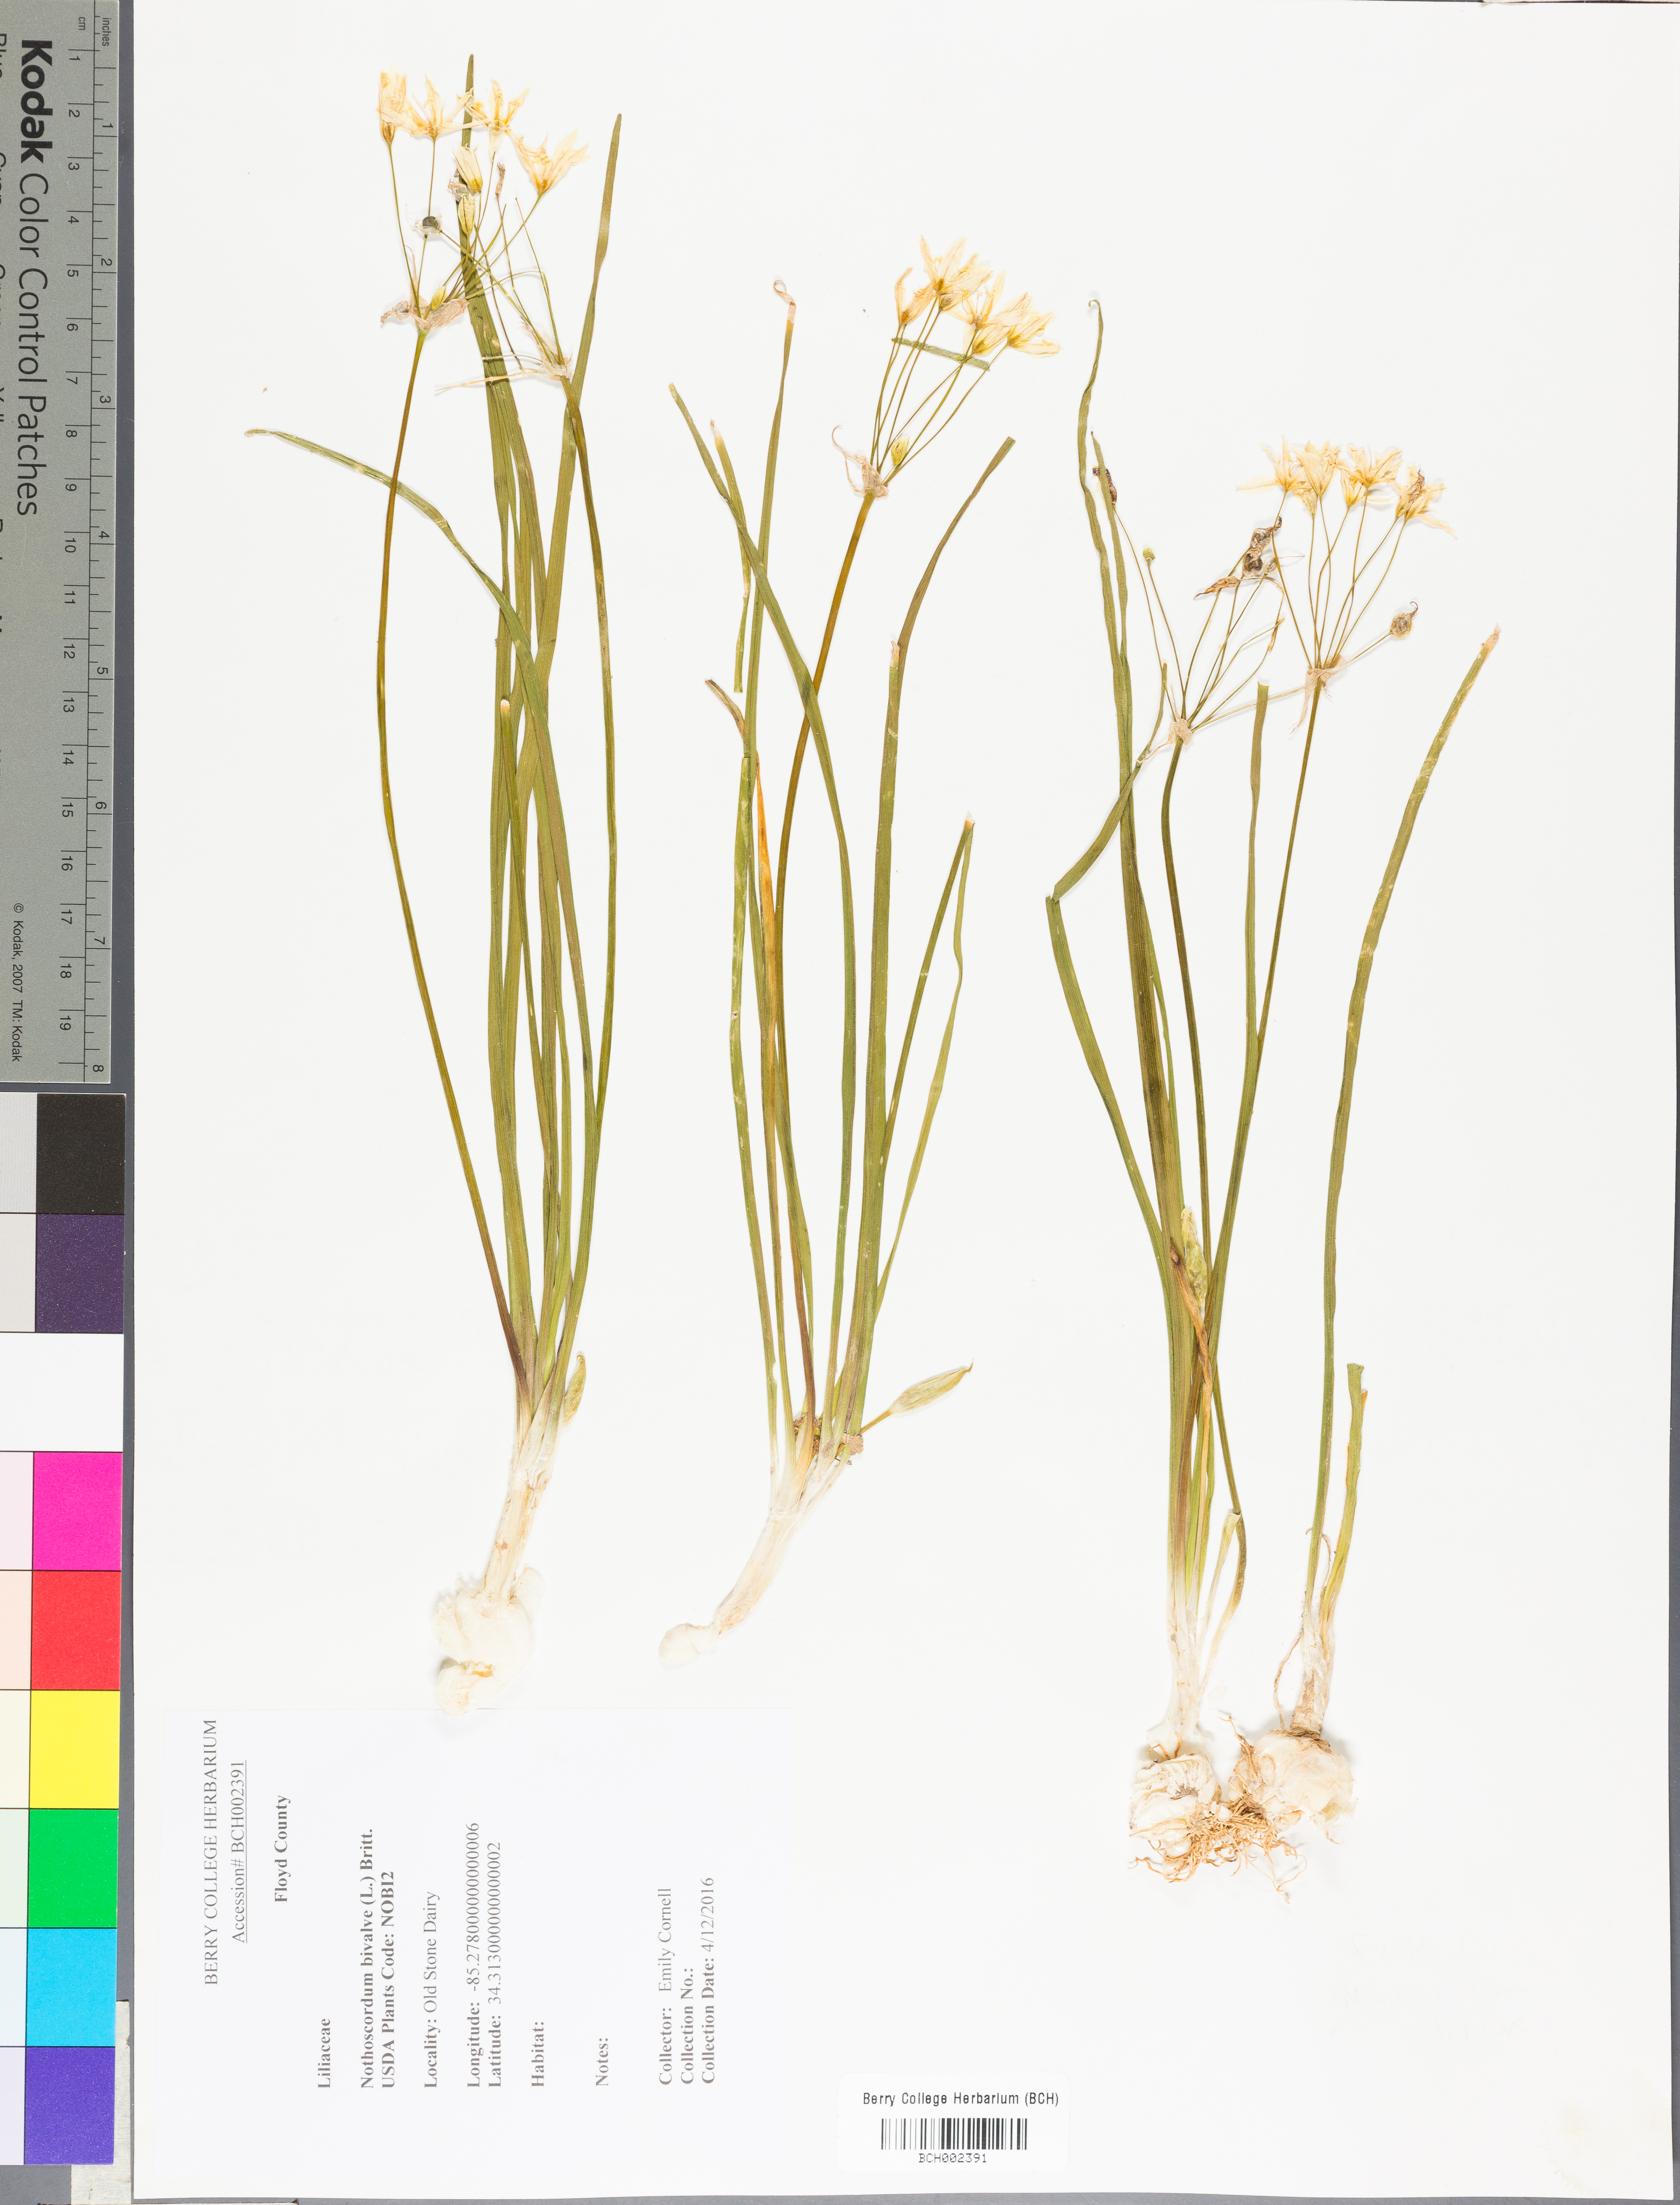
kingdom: Plantae
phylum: Tracheophyta
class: Liliopsida
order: Asparagales
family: Amaryllidaceae
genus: Nothoscordum
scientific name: Nothoscordum bivalve
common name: Crow-poison
